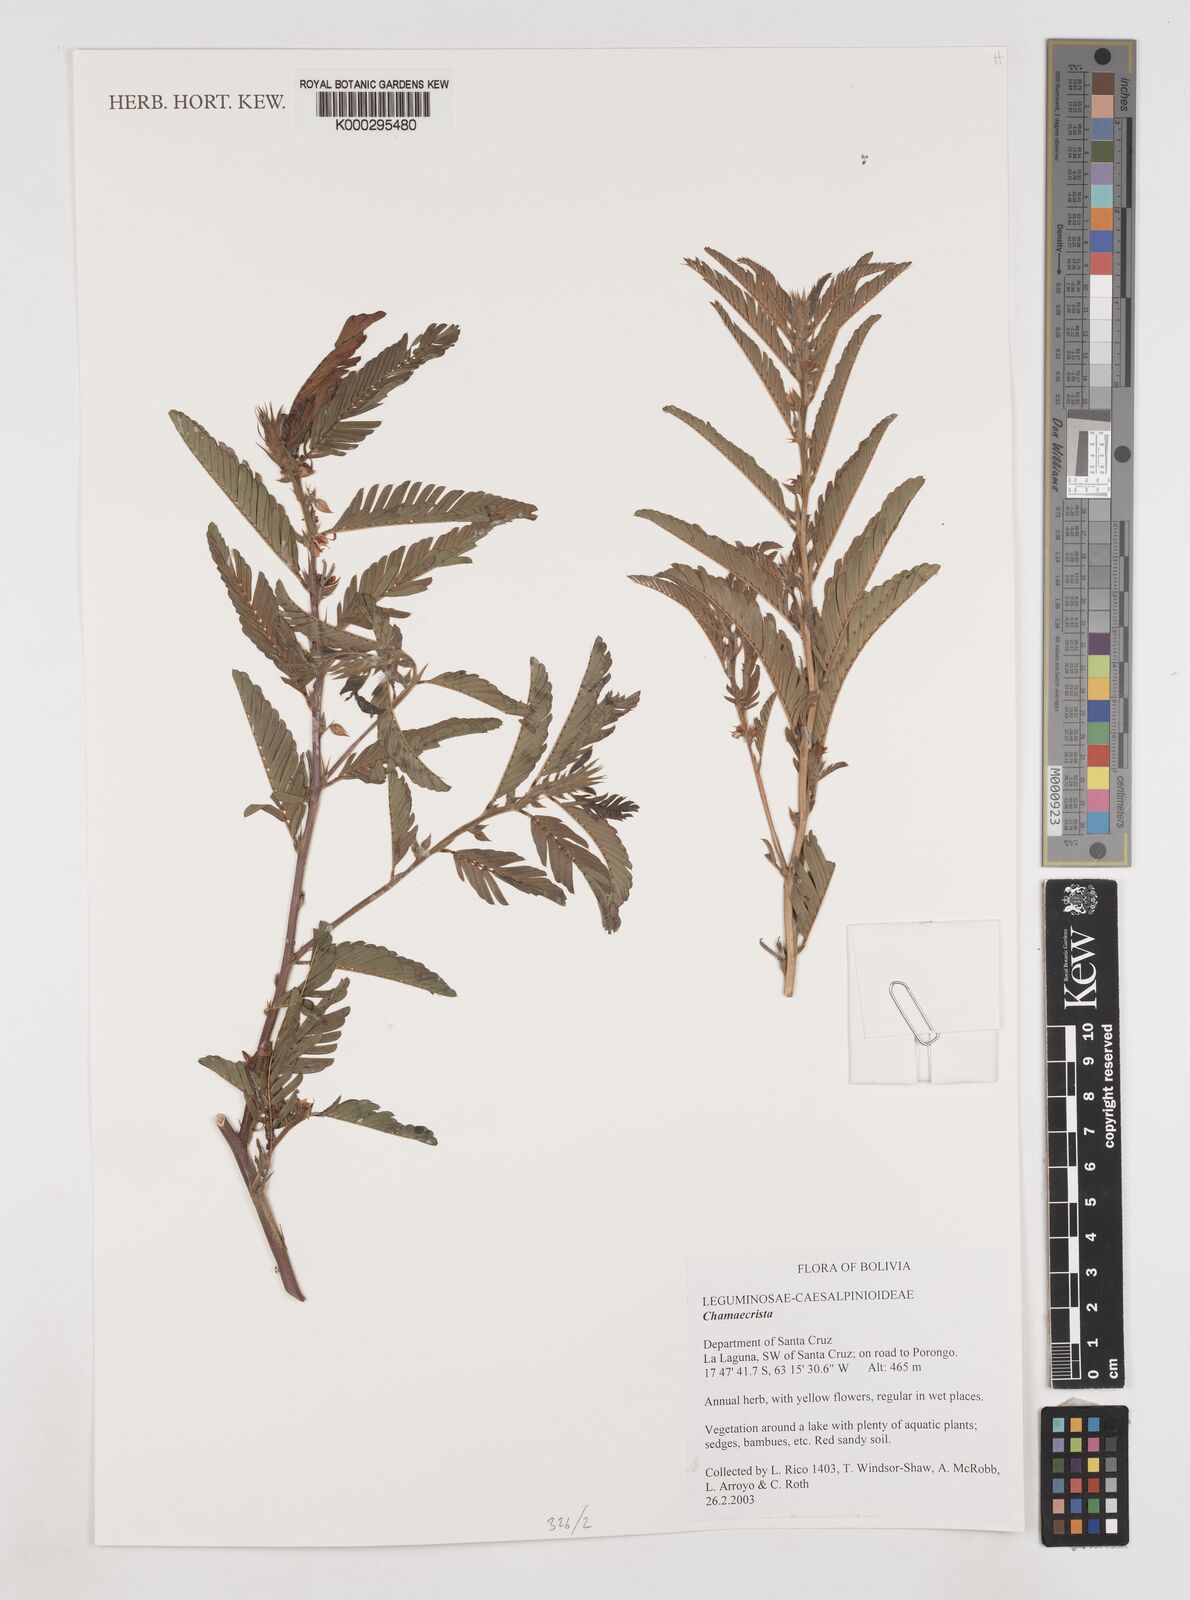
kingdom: Plantae
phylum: Tracheophyta
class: Magnoliopsida
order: Fabales
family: Fabaceae
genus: Chamaecrista
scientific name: Chamaecrista nictitans
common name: Sensitive cassia
